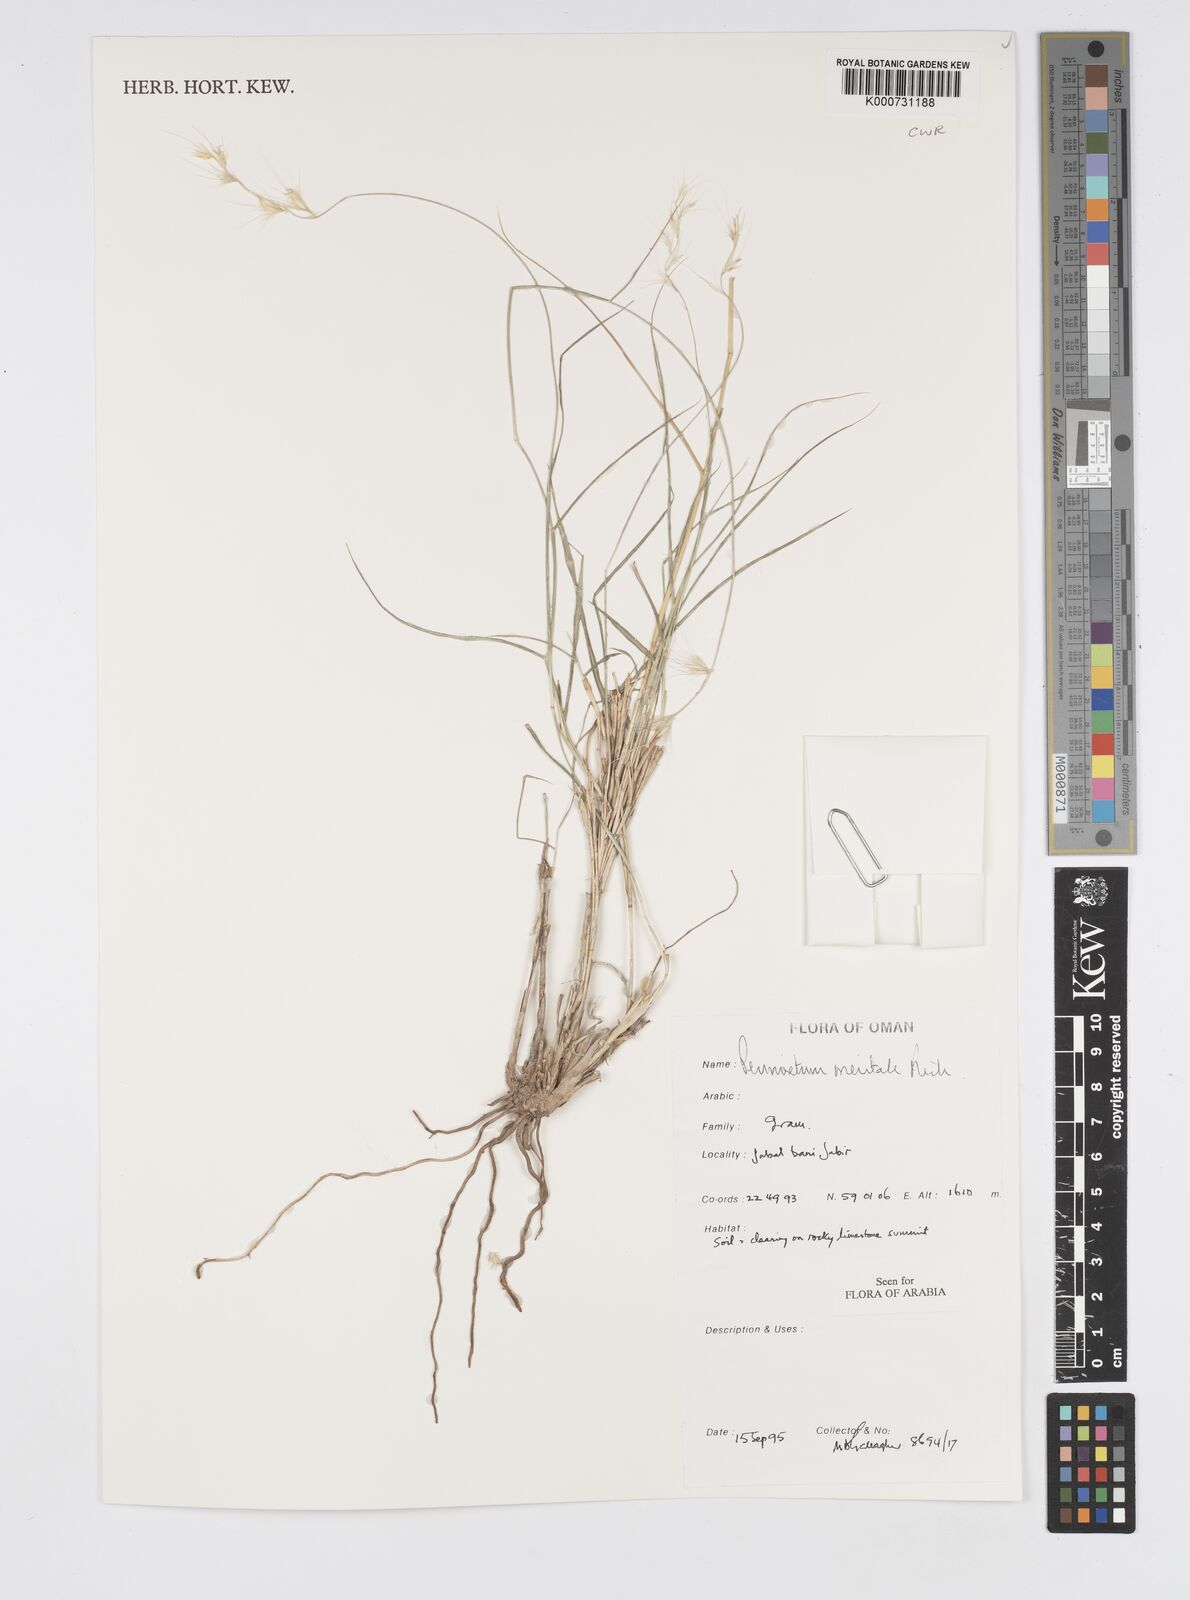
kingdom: Plantae
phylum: Tracheophyta
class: Liliopsida
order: Poales
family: Poaceae
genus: Cenchrus
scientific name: Cenchrus orientalis
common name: Oriental fountain grass
